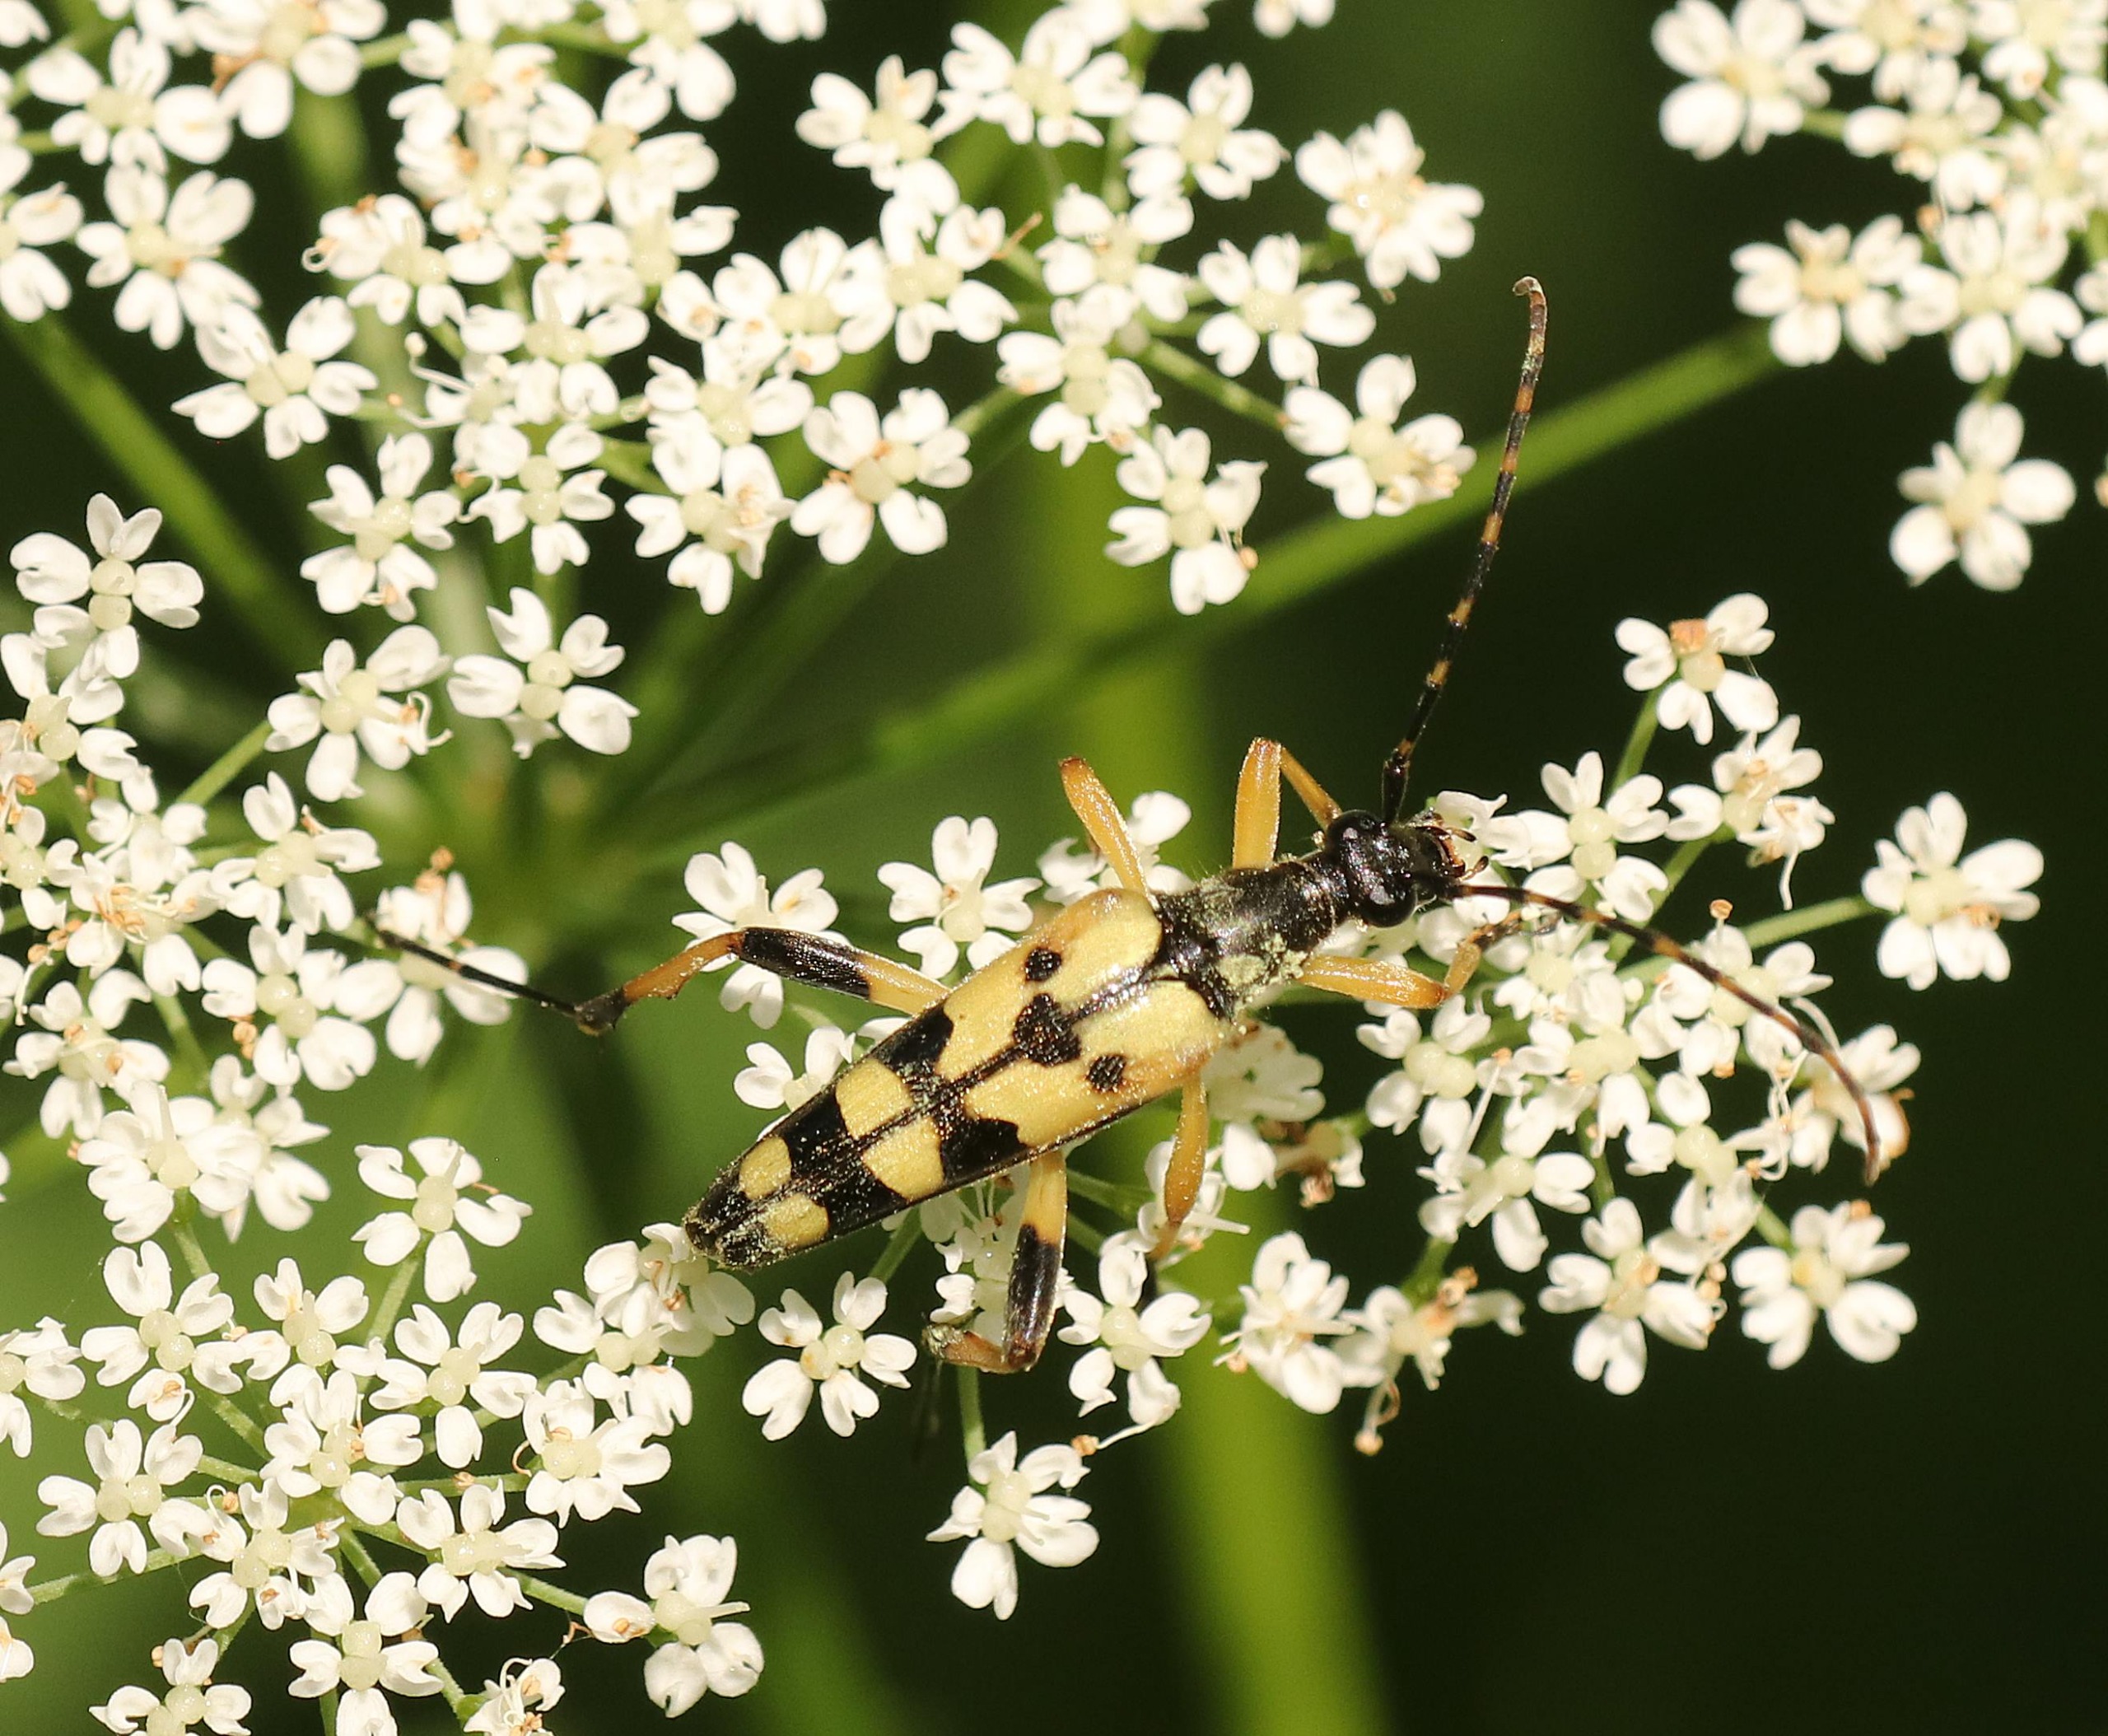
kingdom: Animalia
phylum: Arthropoda
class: Insecta
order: Coleoptera
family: Cerambycidae
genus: Rutpela
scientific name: Rutpela maculata
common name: Sydlig blomsterbuk
